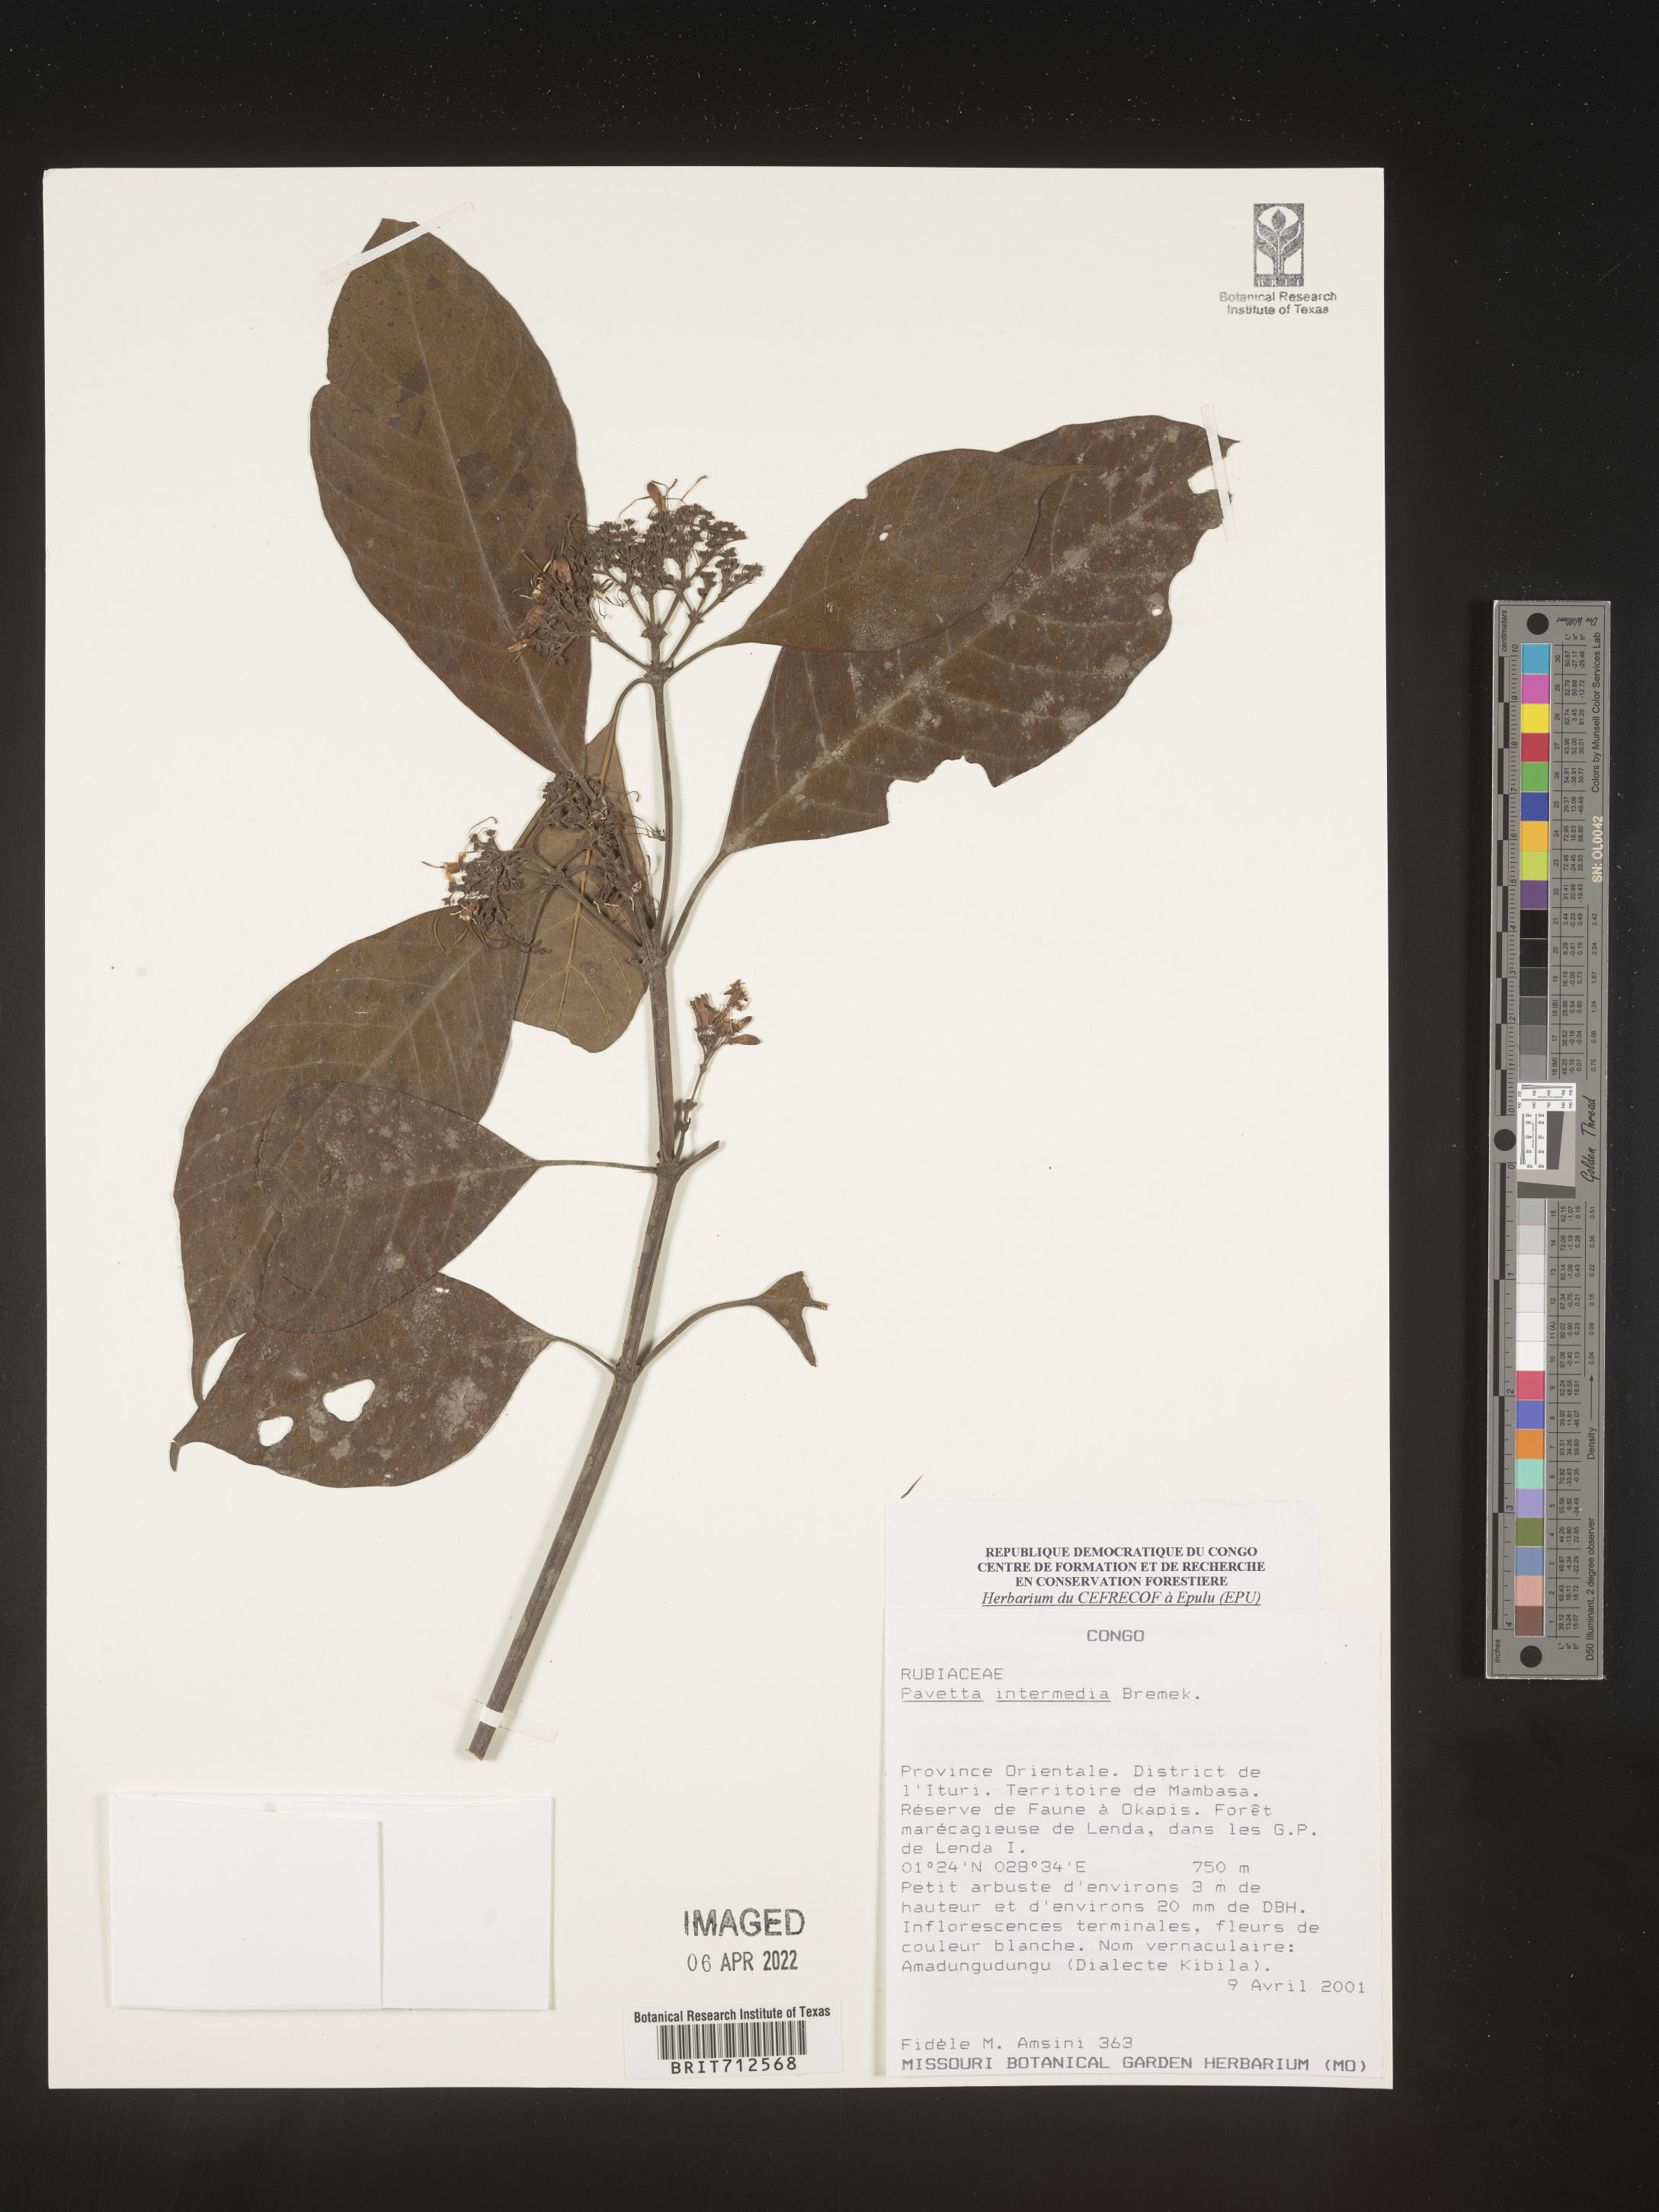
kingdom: Plantae
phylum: Tracheophyta
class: Magnoliopsida
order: Gentianales
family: Rubiaceae
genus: Pavetta
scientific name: Pavetta
